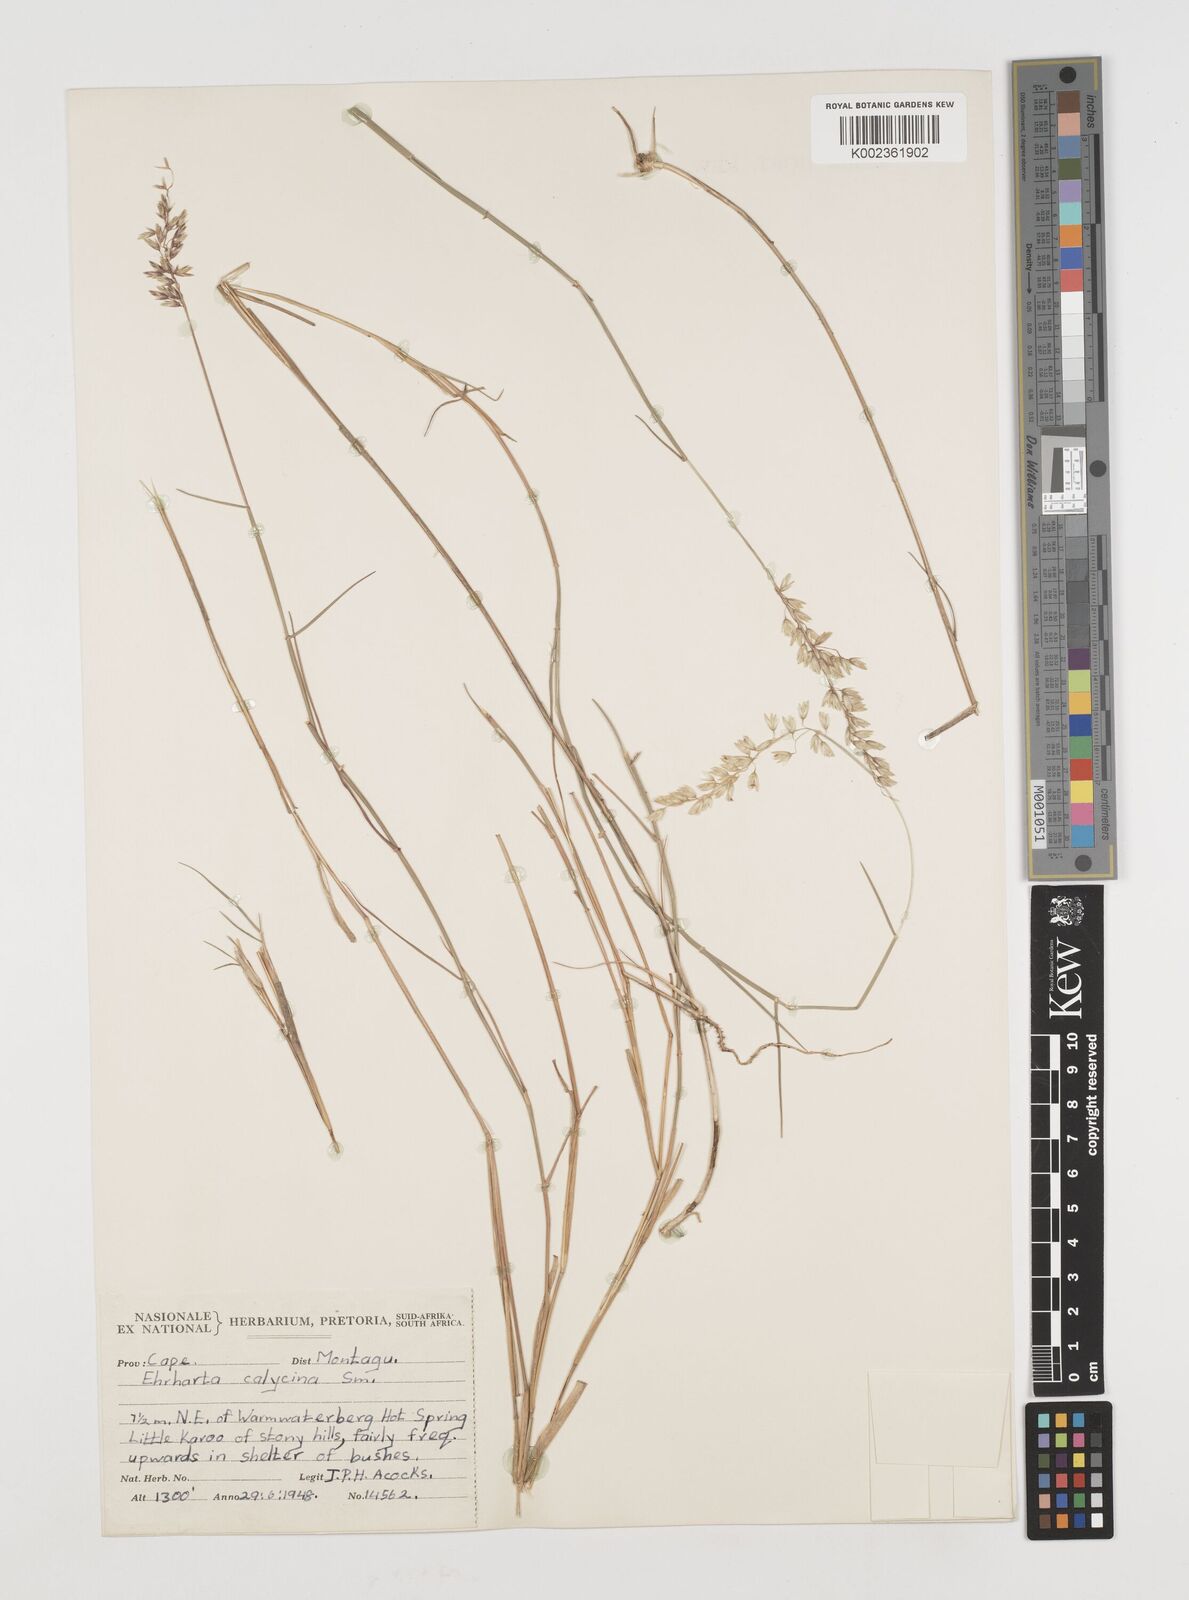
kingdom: Plantae
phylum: Tracheophyta
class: Liliopsida
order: Poales
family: Poaceae
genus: Ehrharta
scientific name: Ehrharta calycina
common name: Perennial veldtgrass
